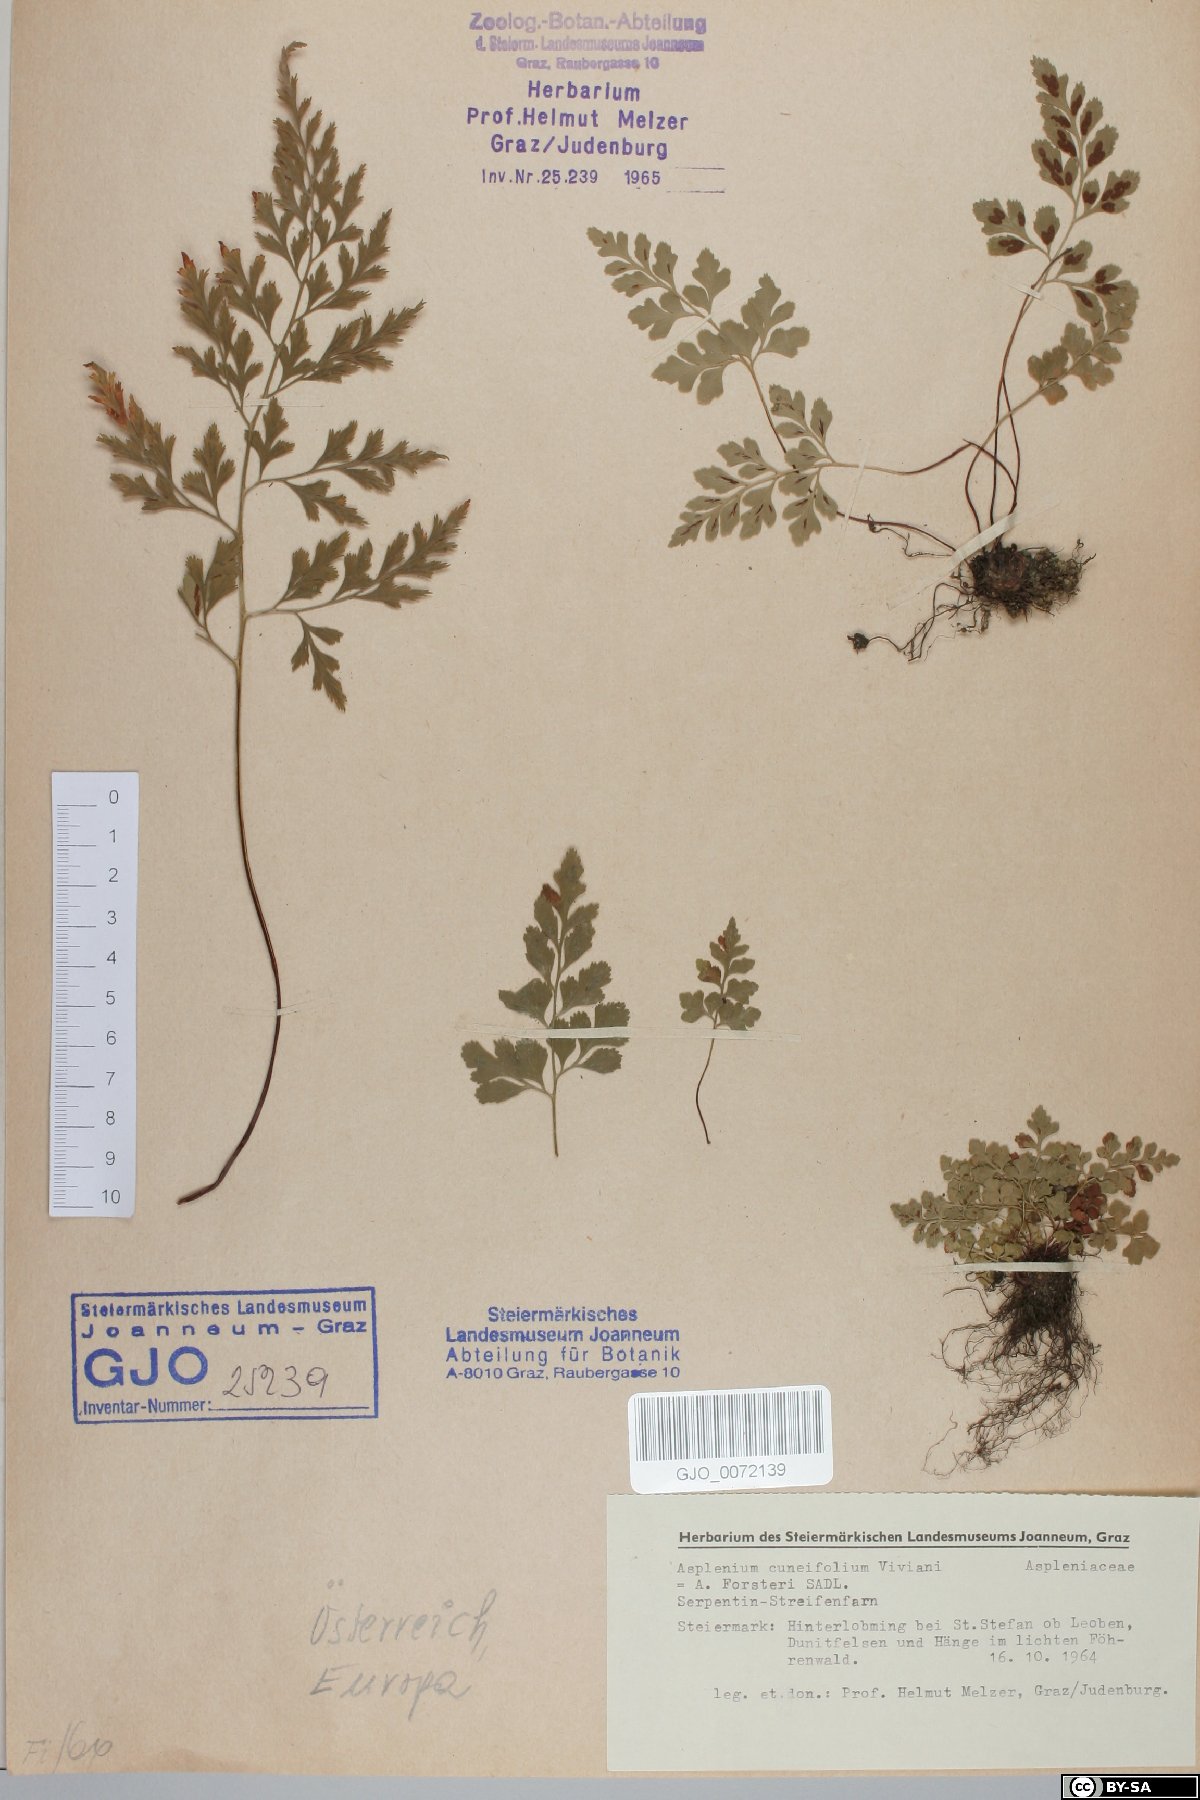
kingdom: Plantae
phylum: Tracheophyta
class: Polypodiopsida
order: Polypodiales
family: Aspleniaceae
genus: Asplenium
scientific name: Asplenium cuneifolium
